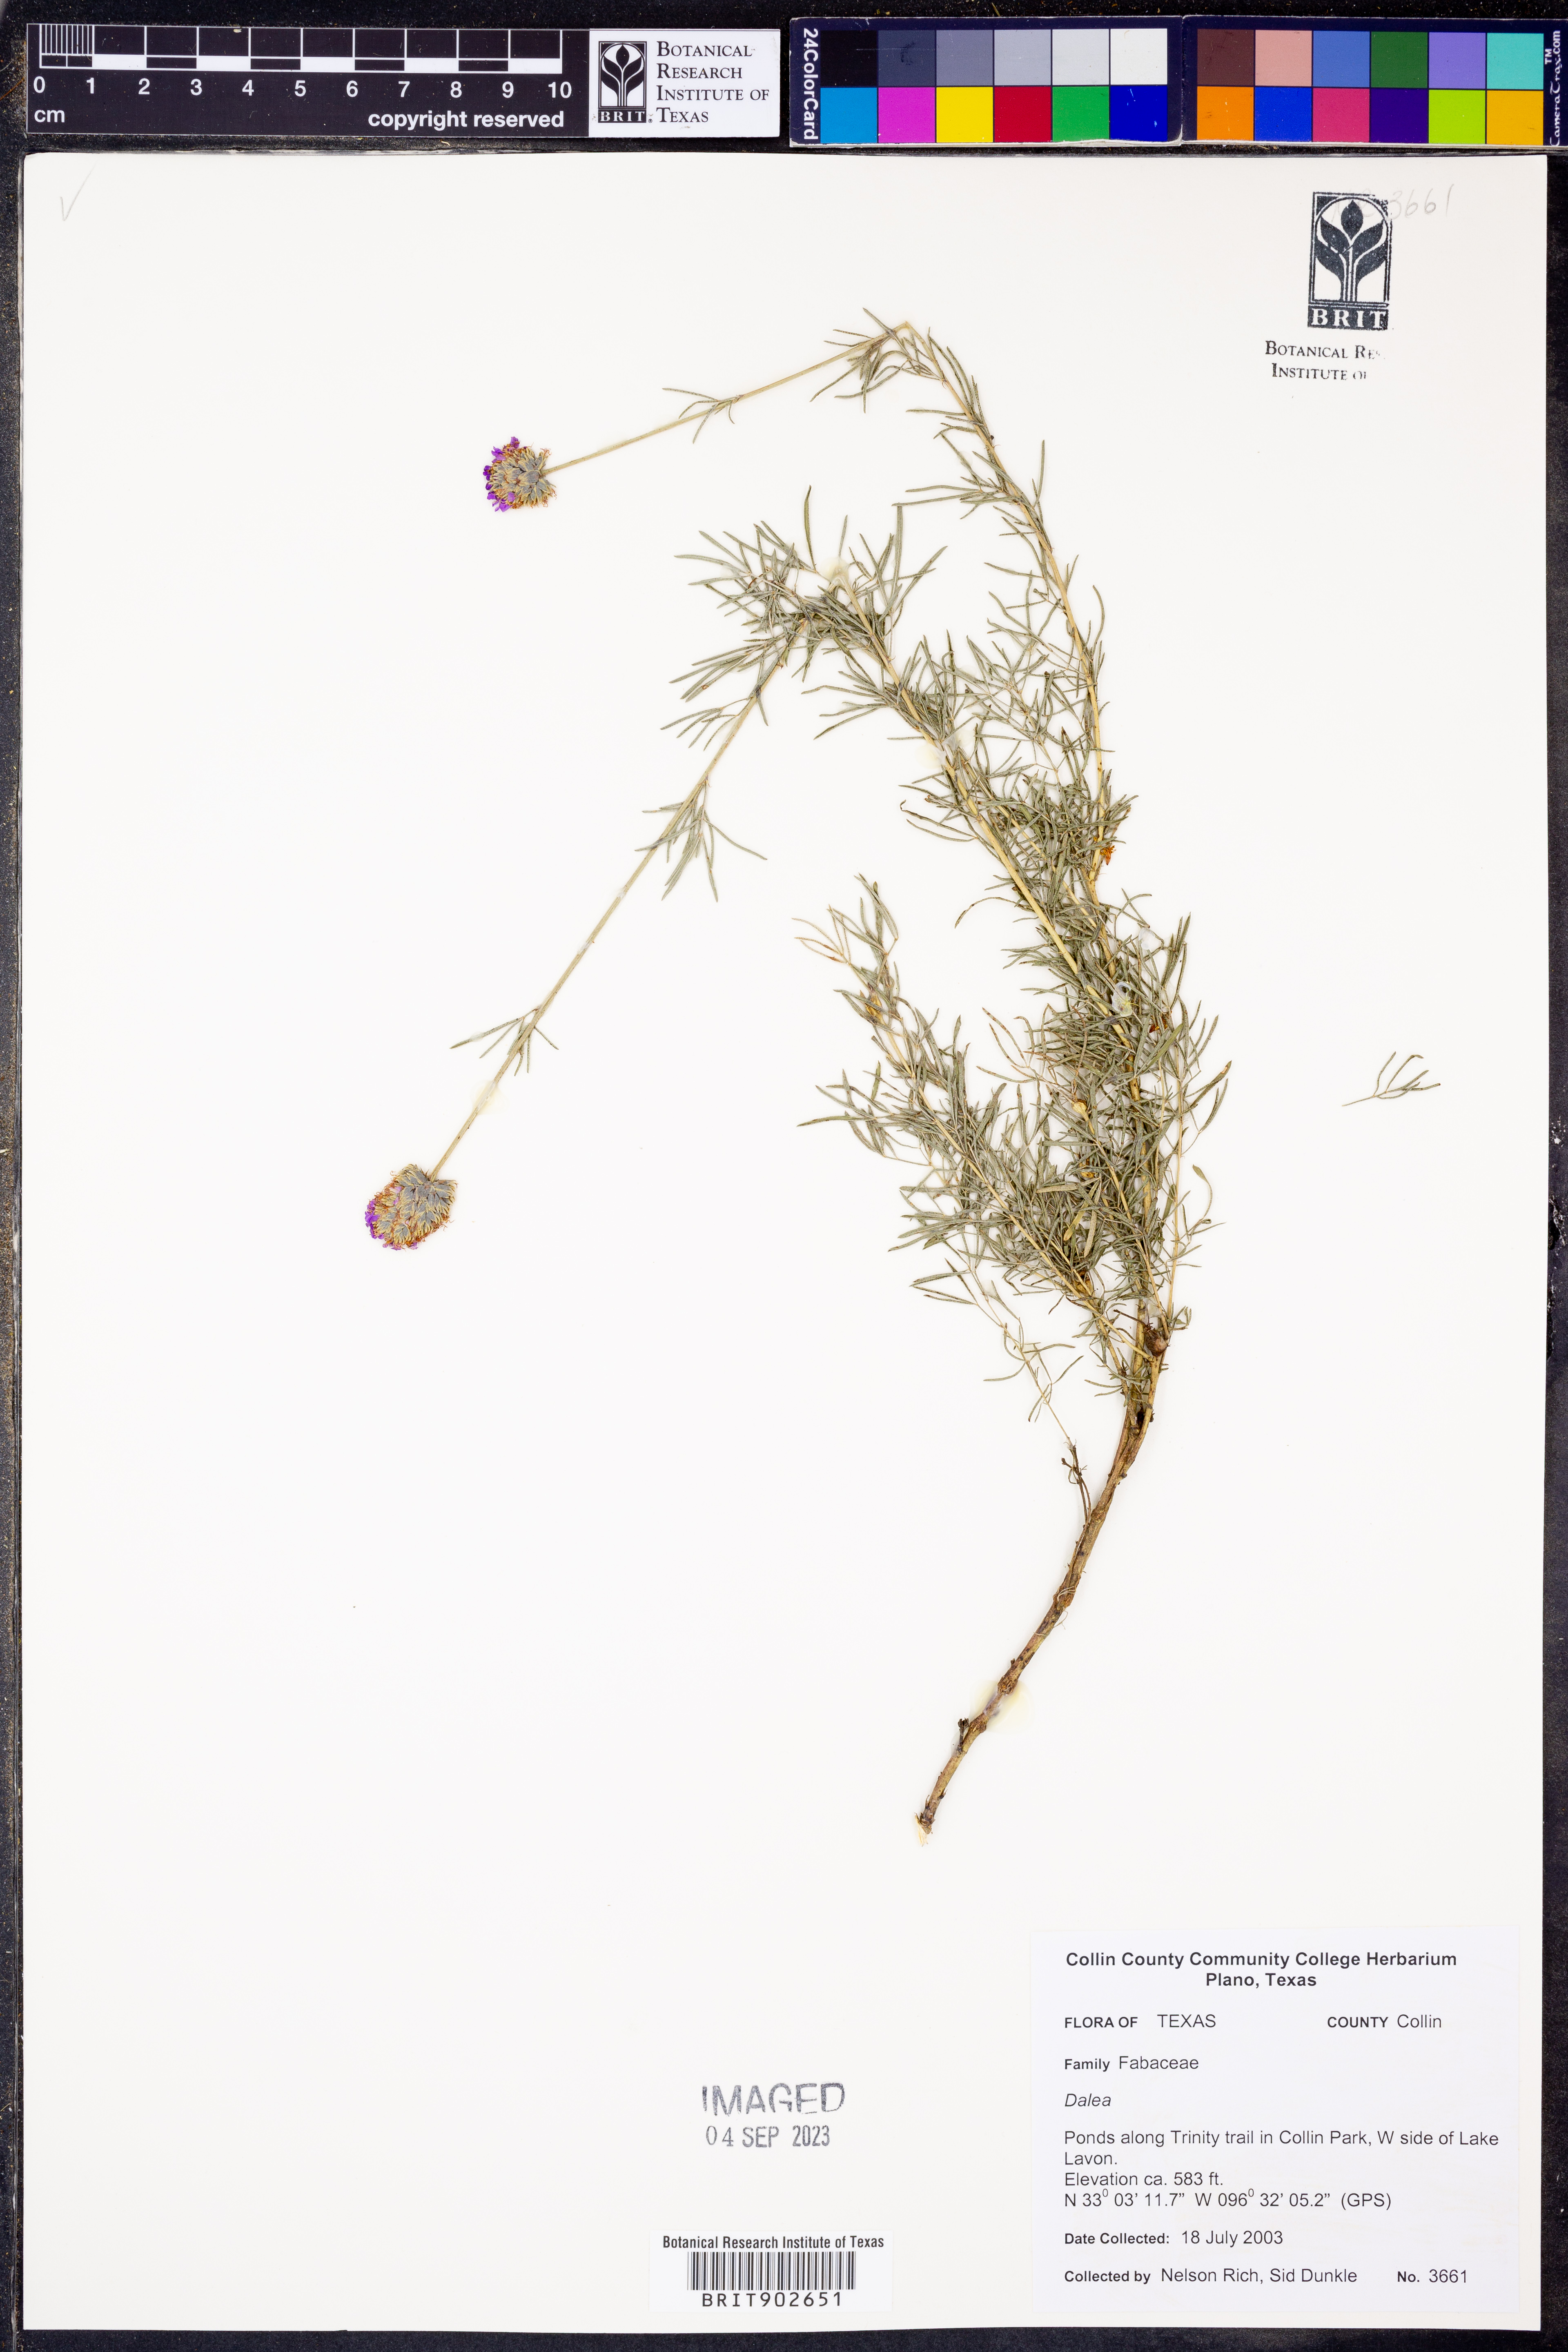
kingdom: Plantae
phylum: Tracheophyta
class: Magnoliopsida
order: Fabales
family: Fabaceae
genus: Dalea
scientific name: Dalea
